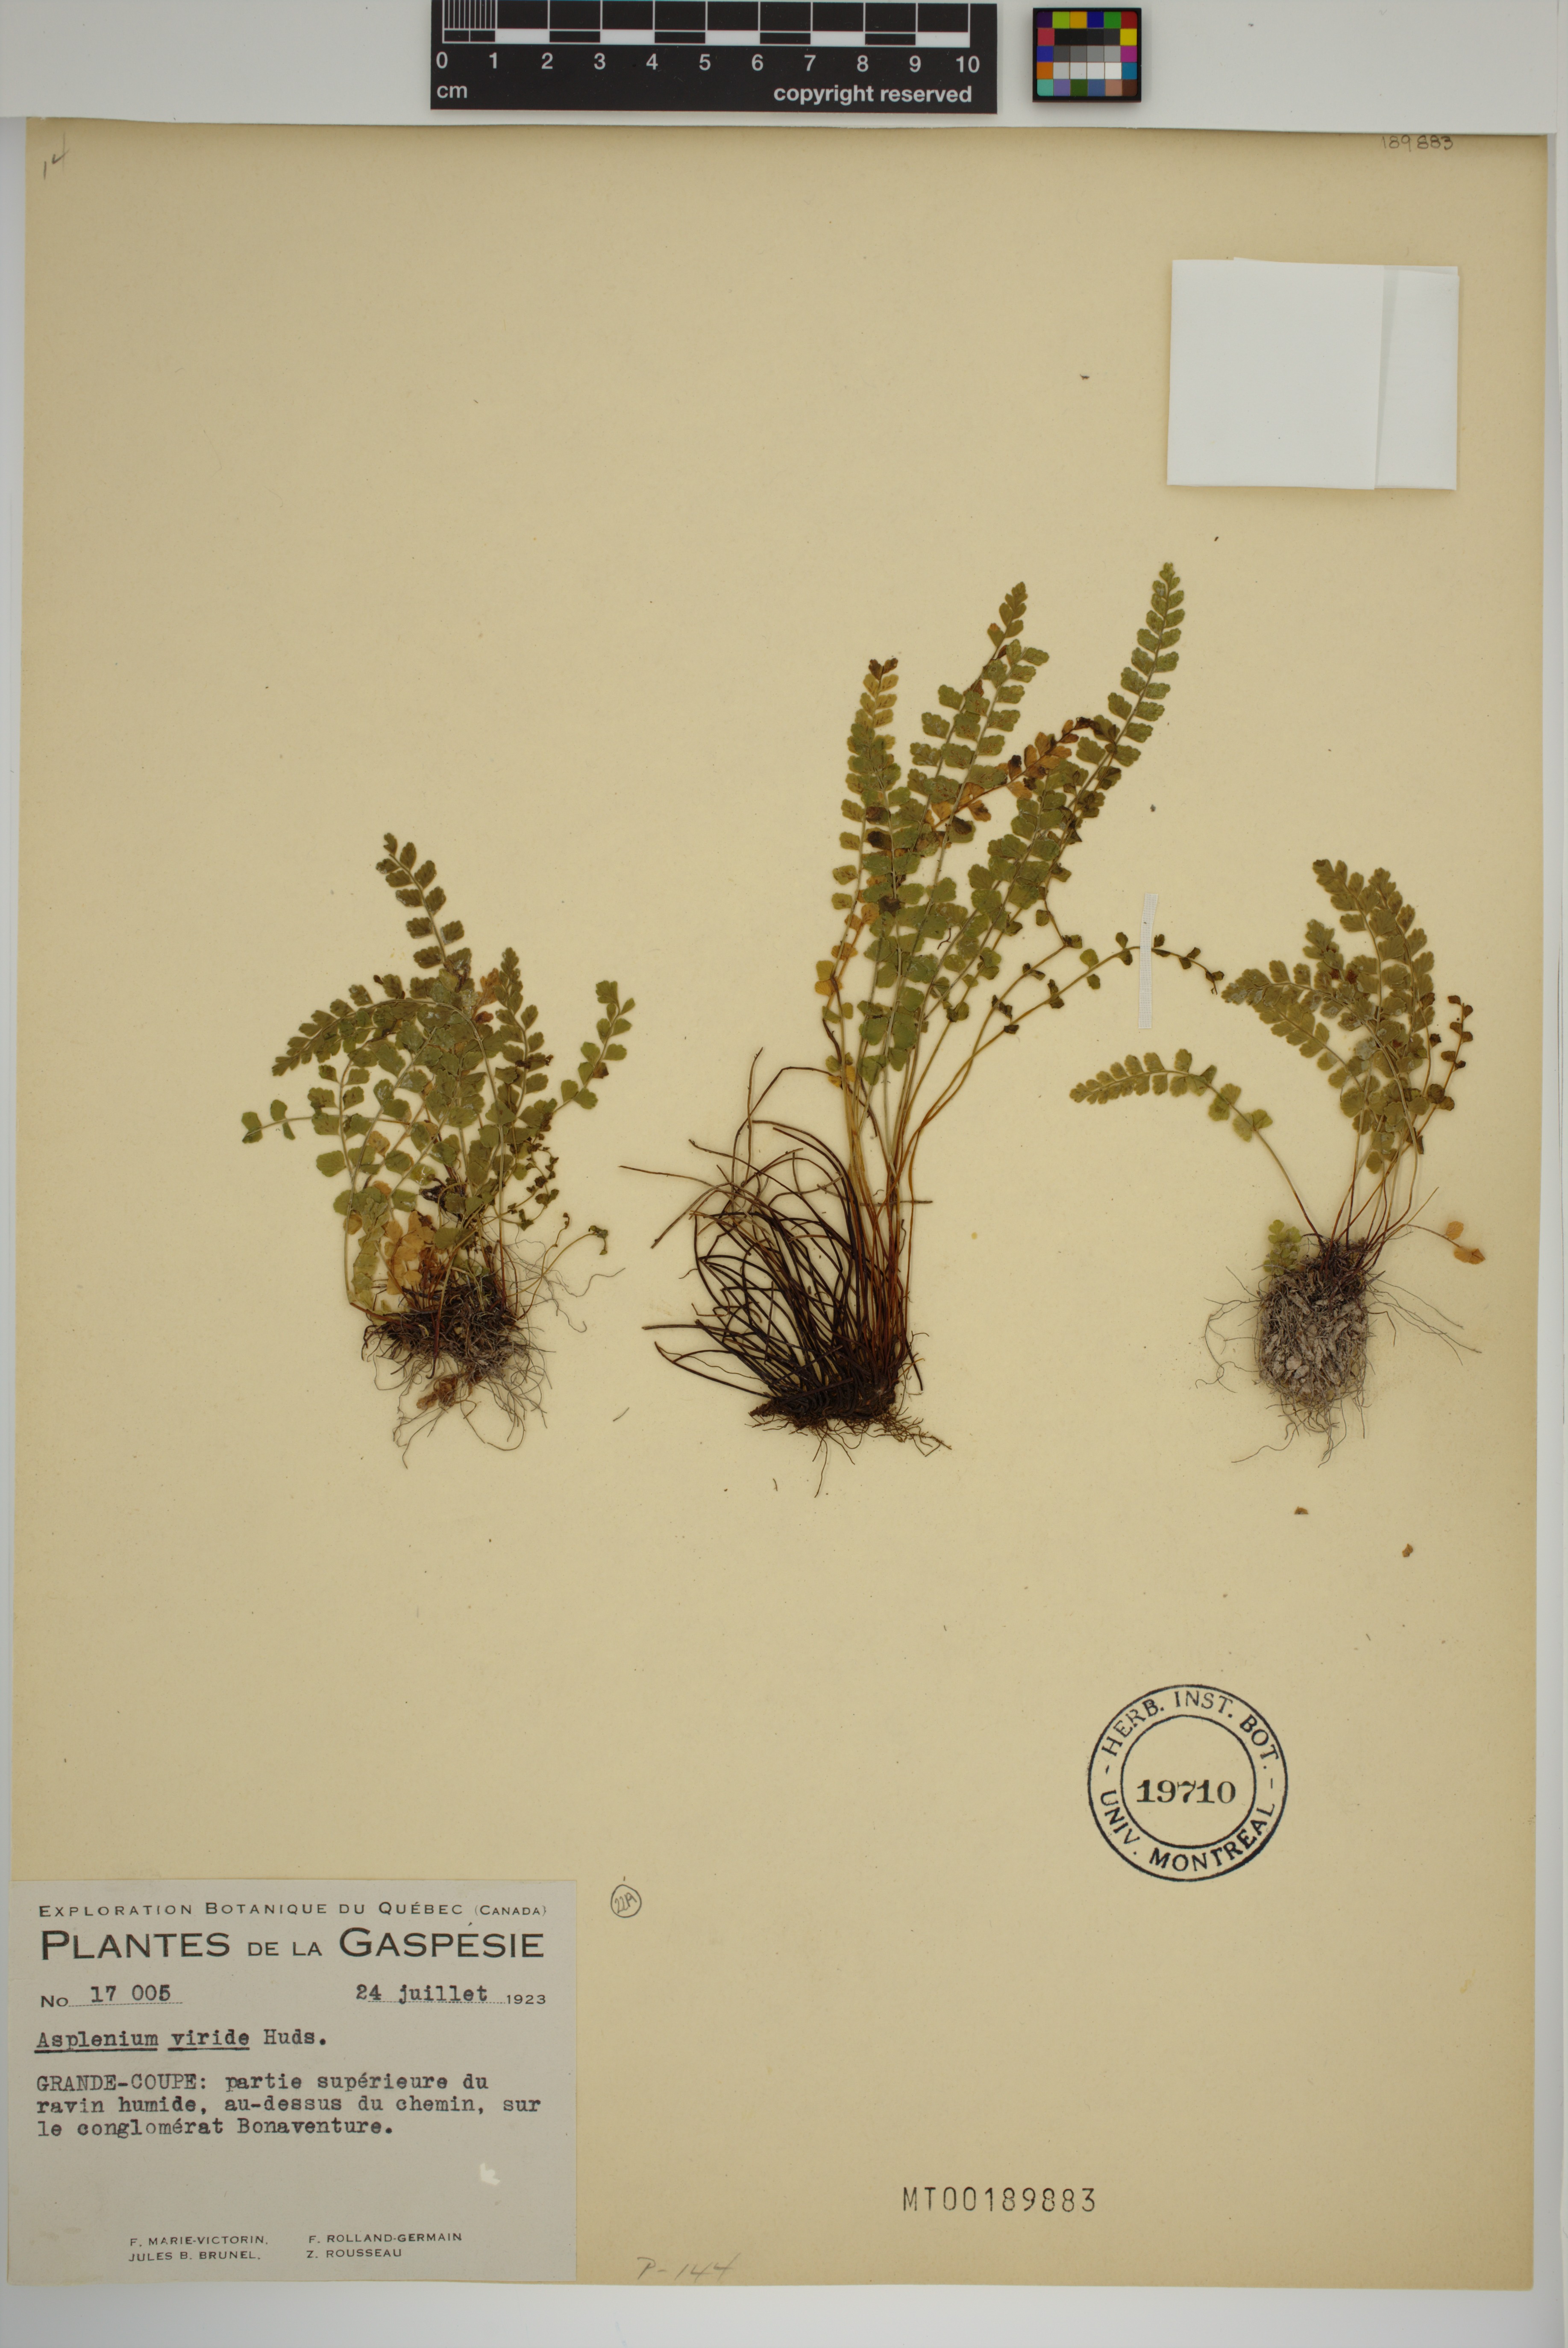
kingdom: Plantae
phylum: Tracheophyta
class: Polypodiopsida
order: Polypodiales
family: Aspleniaceae
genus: Asplenium
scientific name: Asplenium viride
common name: Green spleenwort
